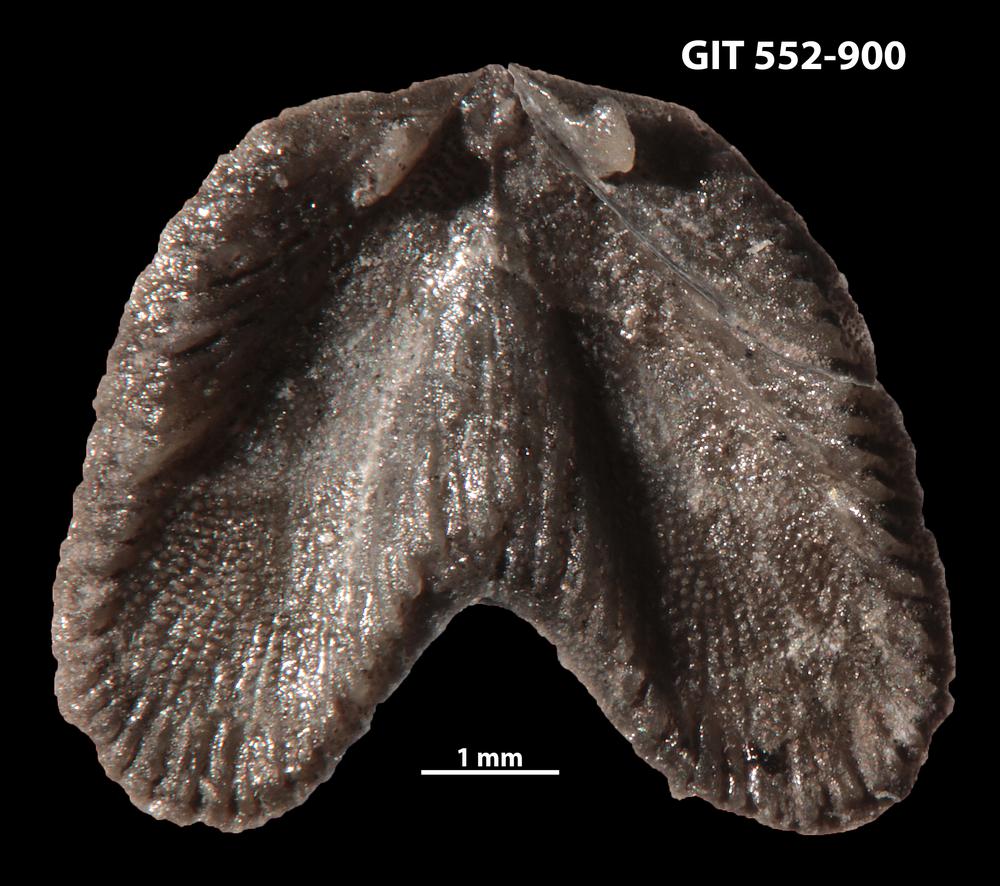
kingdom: Animalia
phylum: Brachiopoda
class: Rhynchonellata
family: Dicoelosiidae
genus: Dicoelosia
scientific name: Dicoelosia paralata
